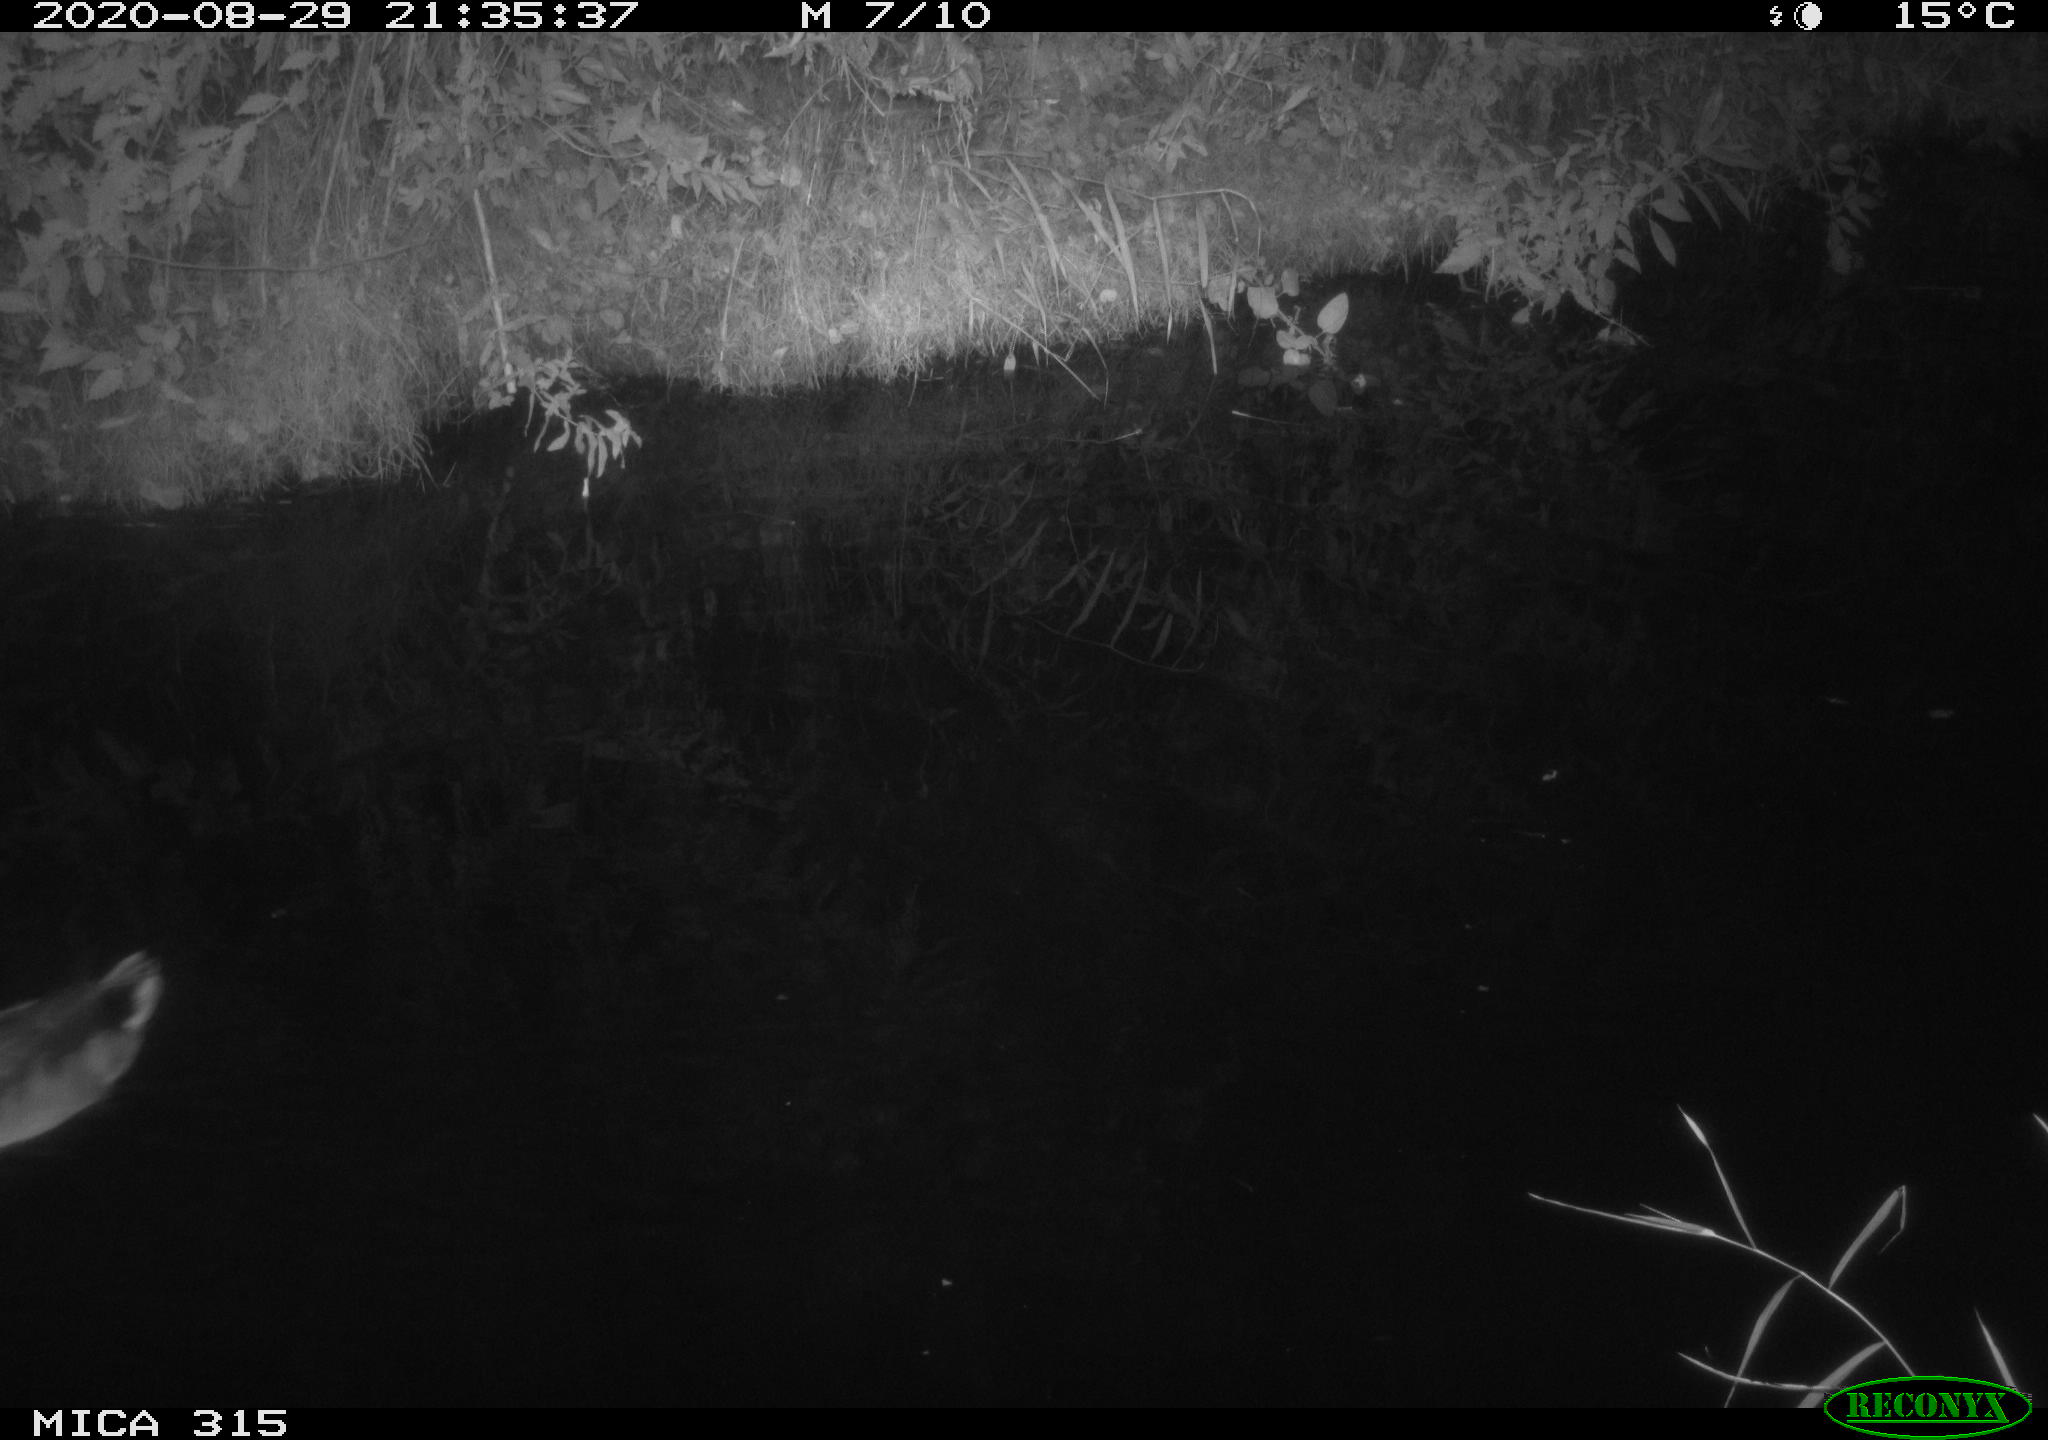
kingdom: Animalia
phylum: Chordata
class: Aves
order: Anseriformes
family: Anatidae
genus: Anas
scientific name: Anas platyrhynchos
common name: Mallard
